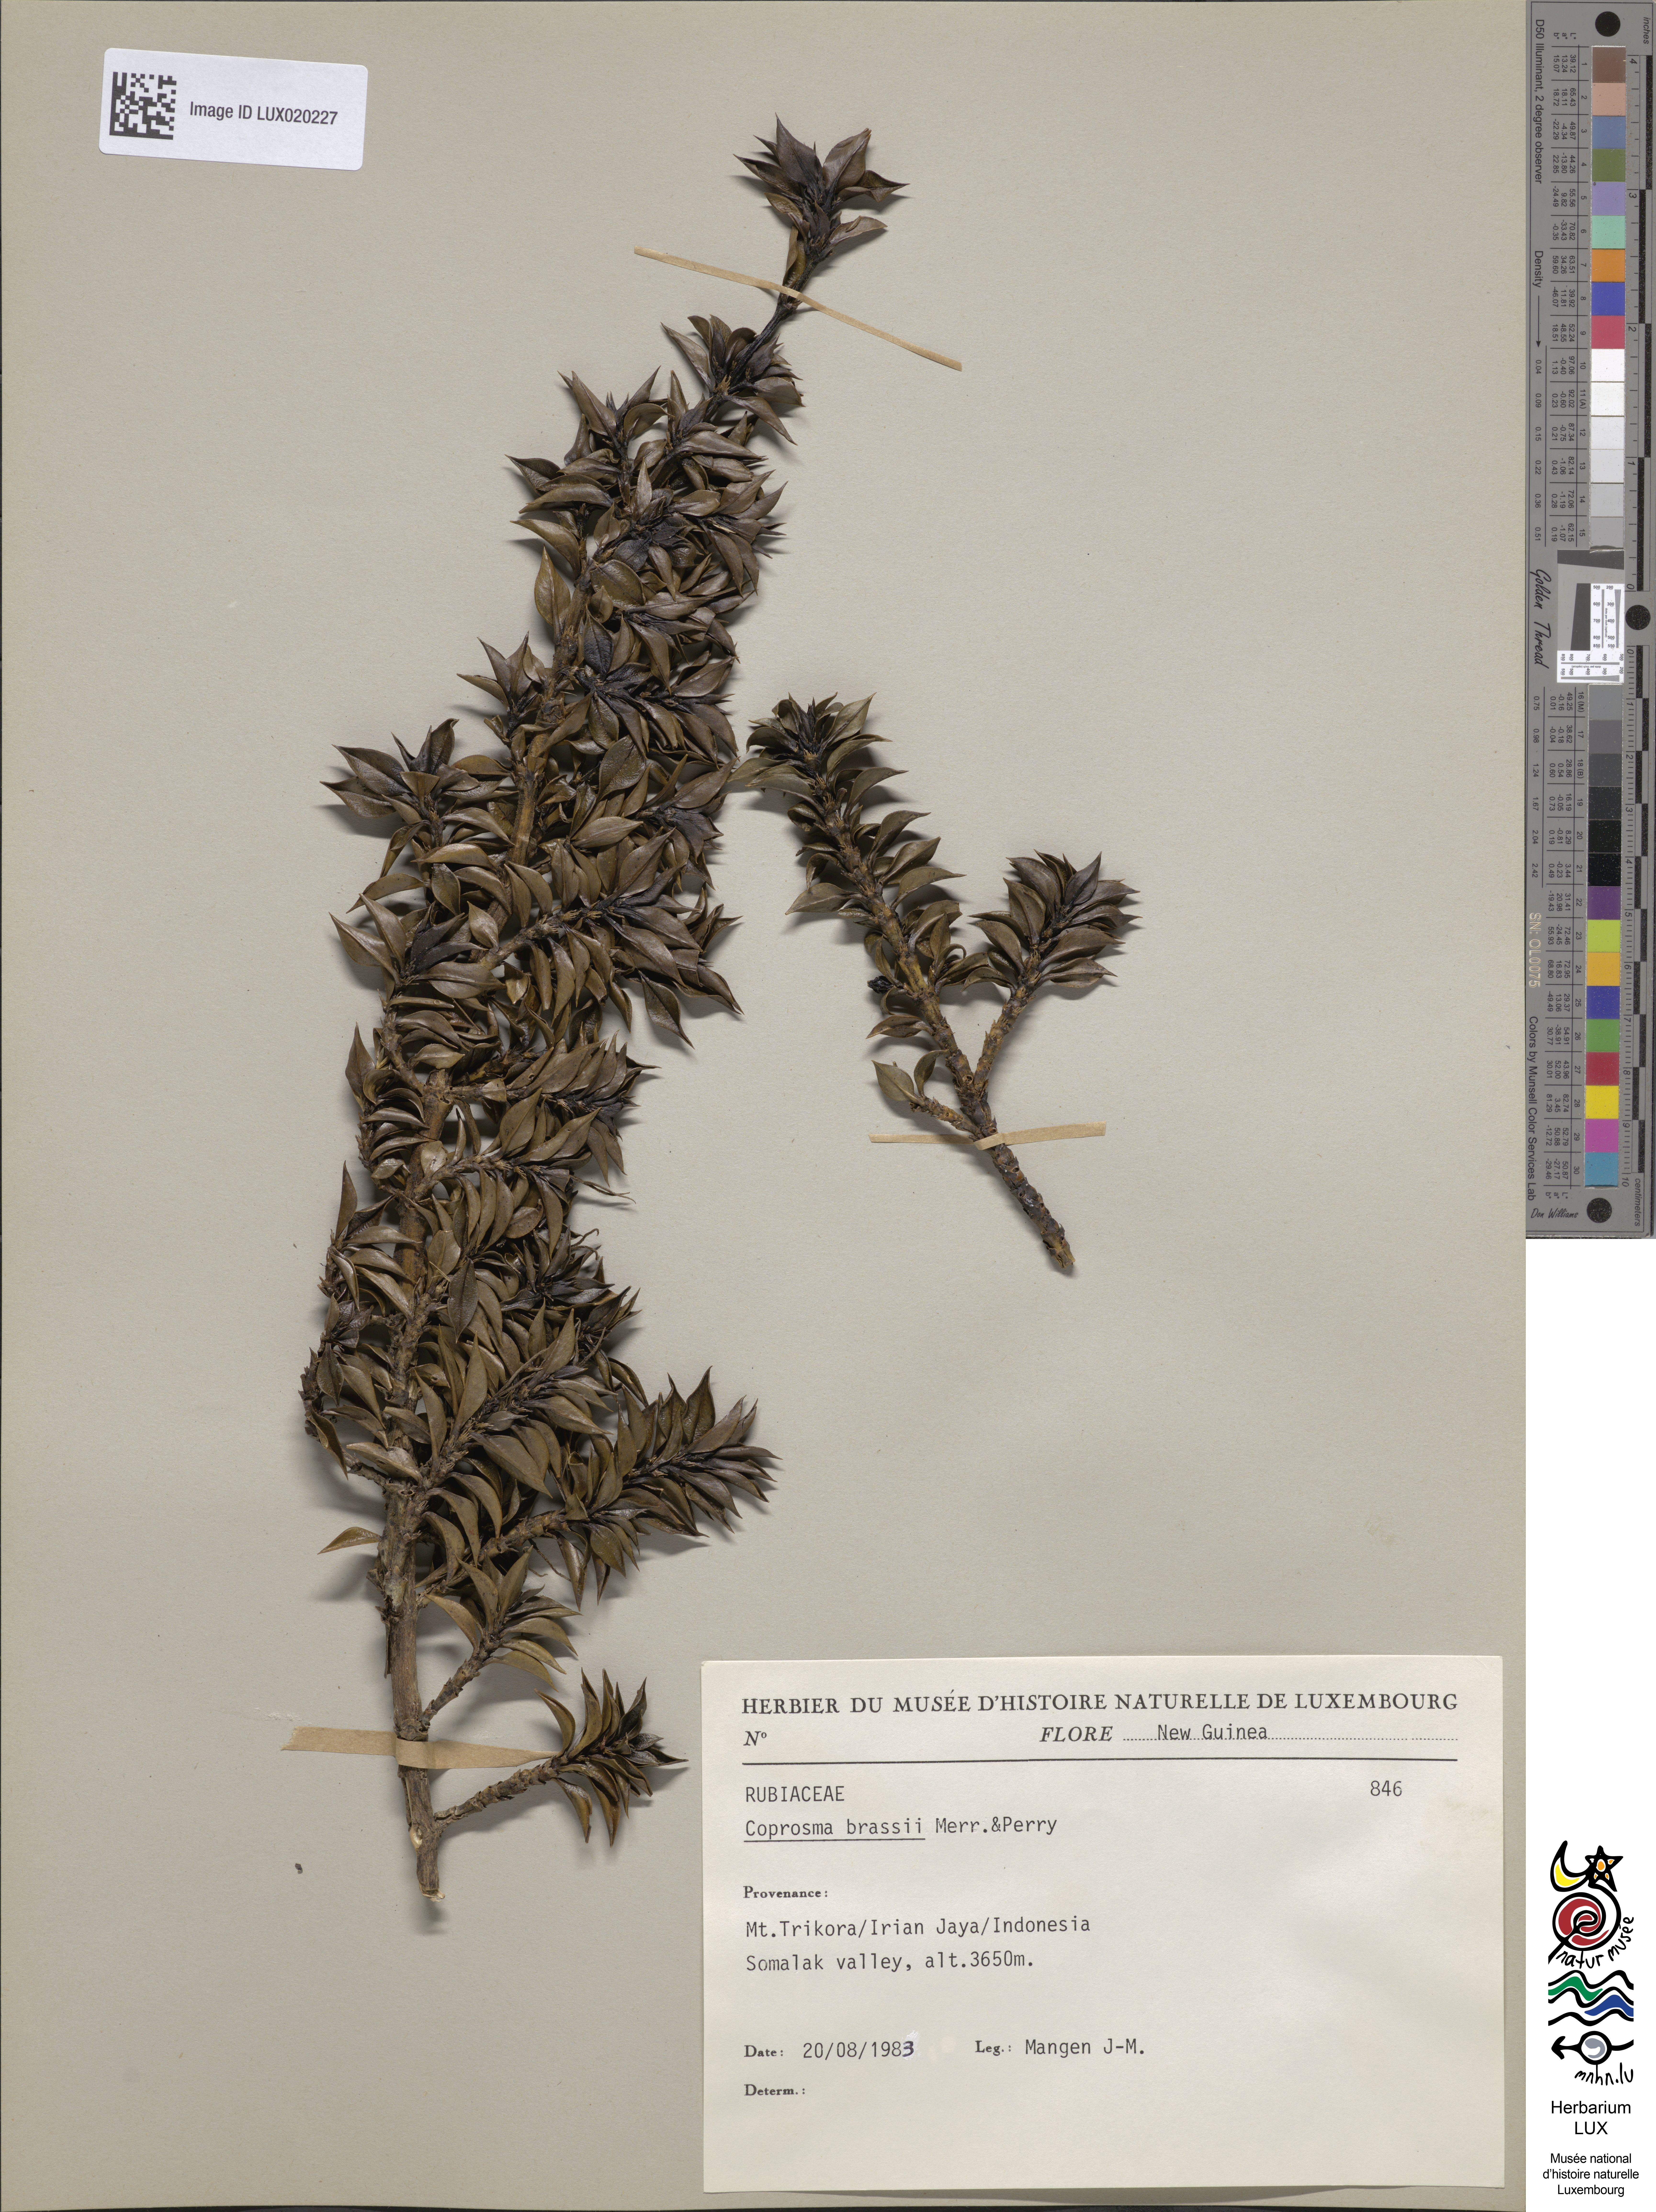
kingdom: Plantae
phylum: Tracheophyta
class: Magnoliopsida
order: Gentianales
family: Rubiaceae
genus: Coprosma
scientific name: Coprosma brassii
